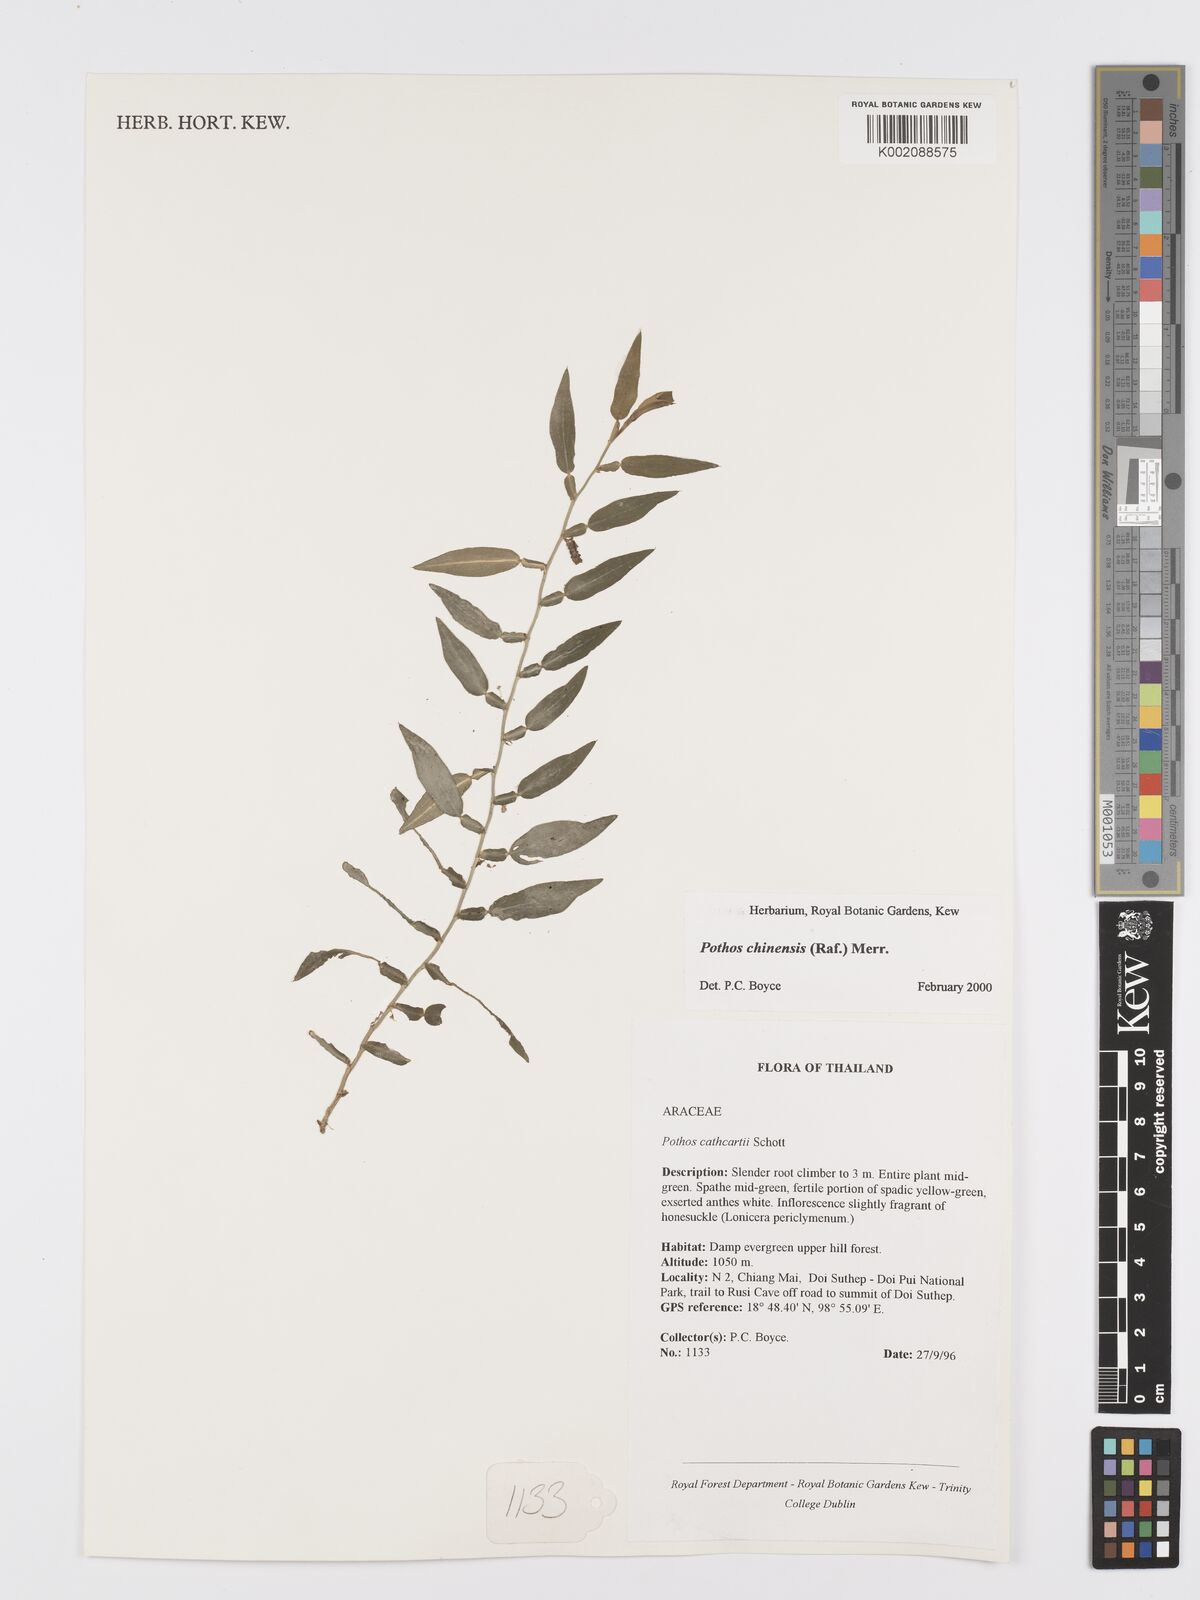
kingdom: Plantae
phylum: Tracheophyta
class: Liliopsida
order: Alismatales
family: Araceae
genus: Pothos
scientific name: Pothos chinensis
